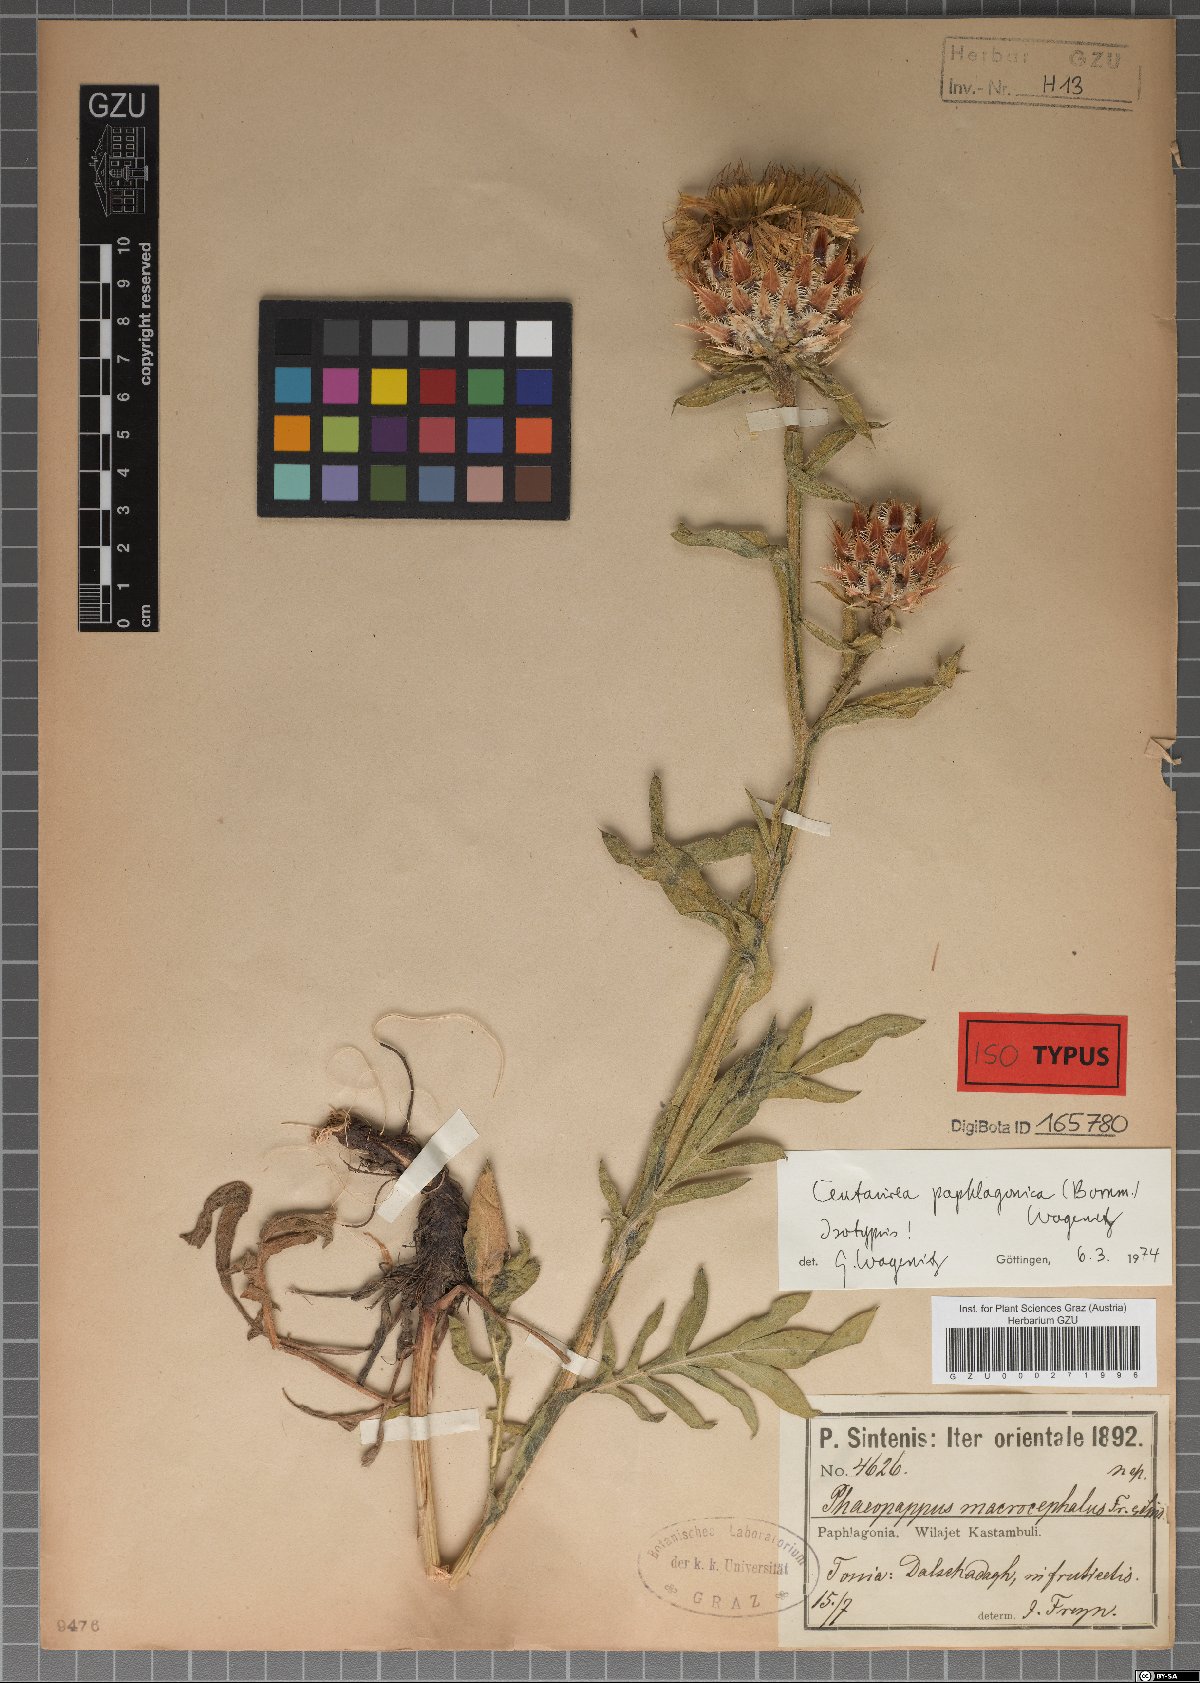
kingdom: Plantae
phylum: Tracheophyta
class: Magnoliopsida
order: Asterales
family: Asteraceae
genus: Centaurea
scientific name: Centaurea
